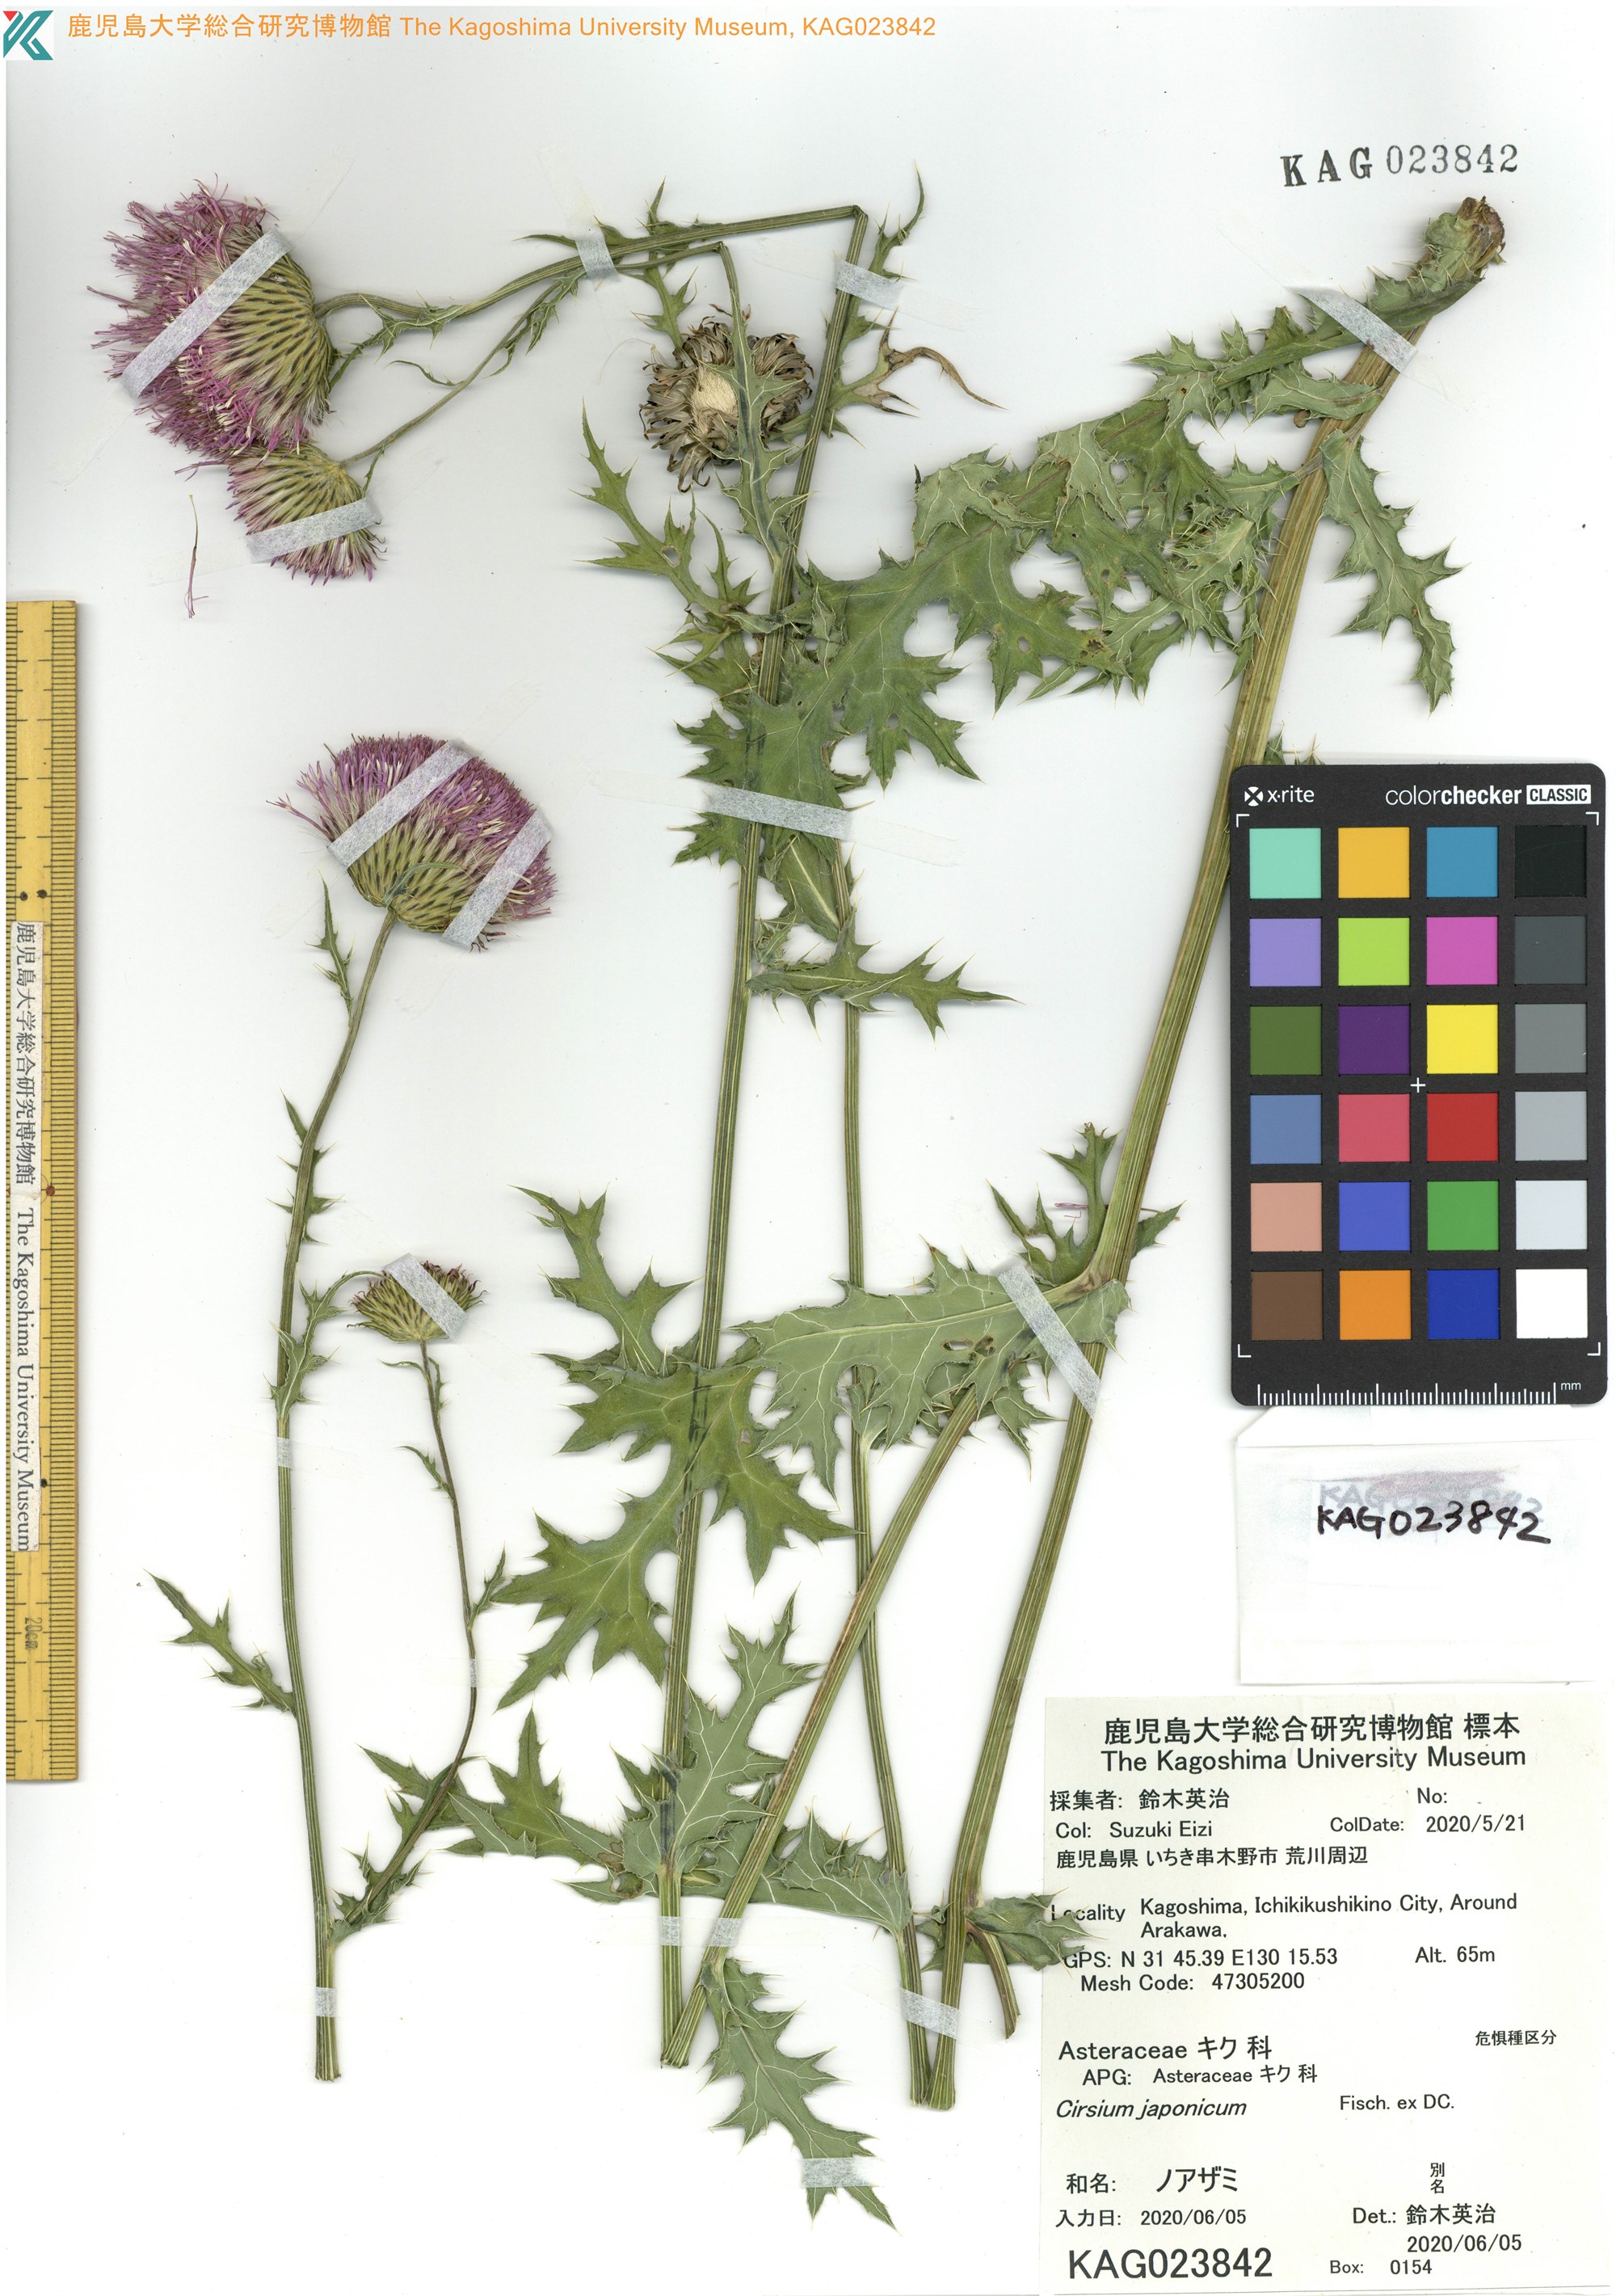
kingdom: Plantae
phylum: Tracheophyta
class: Magnoliopsida
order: Asterales
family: Asteraceae
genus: Cirsium
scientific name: Cirsium japonicum
